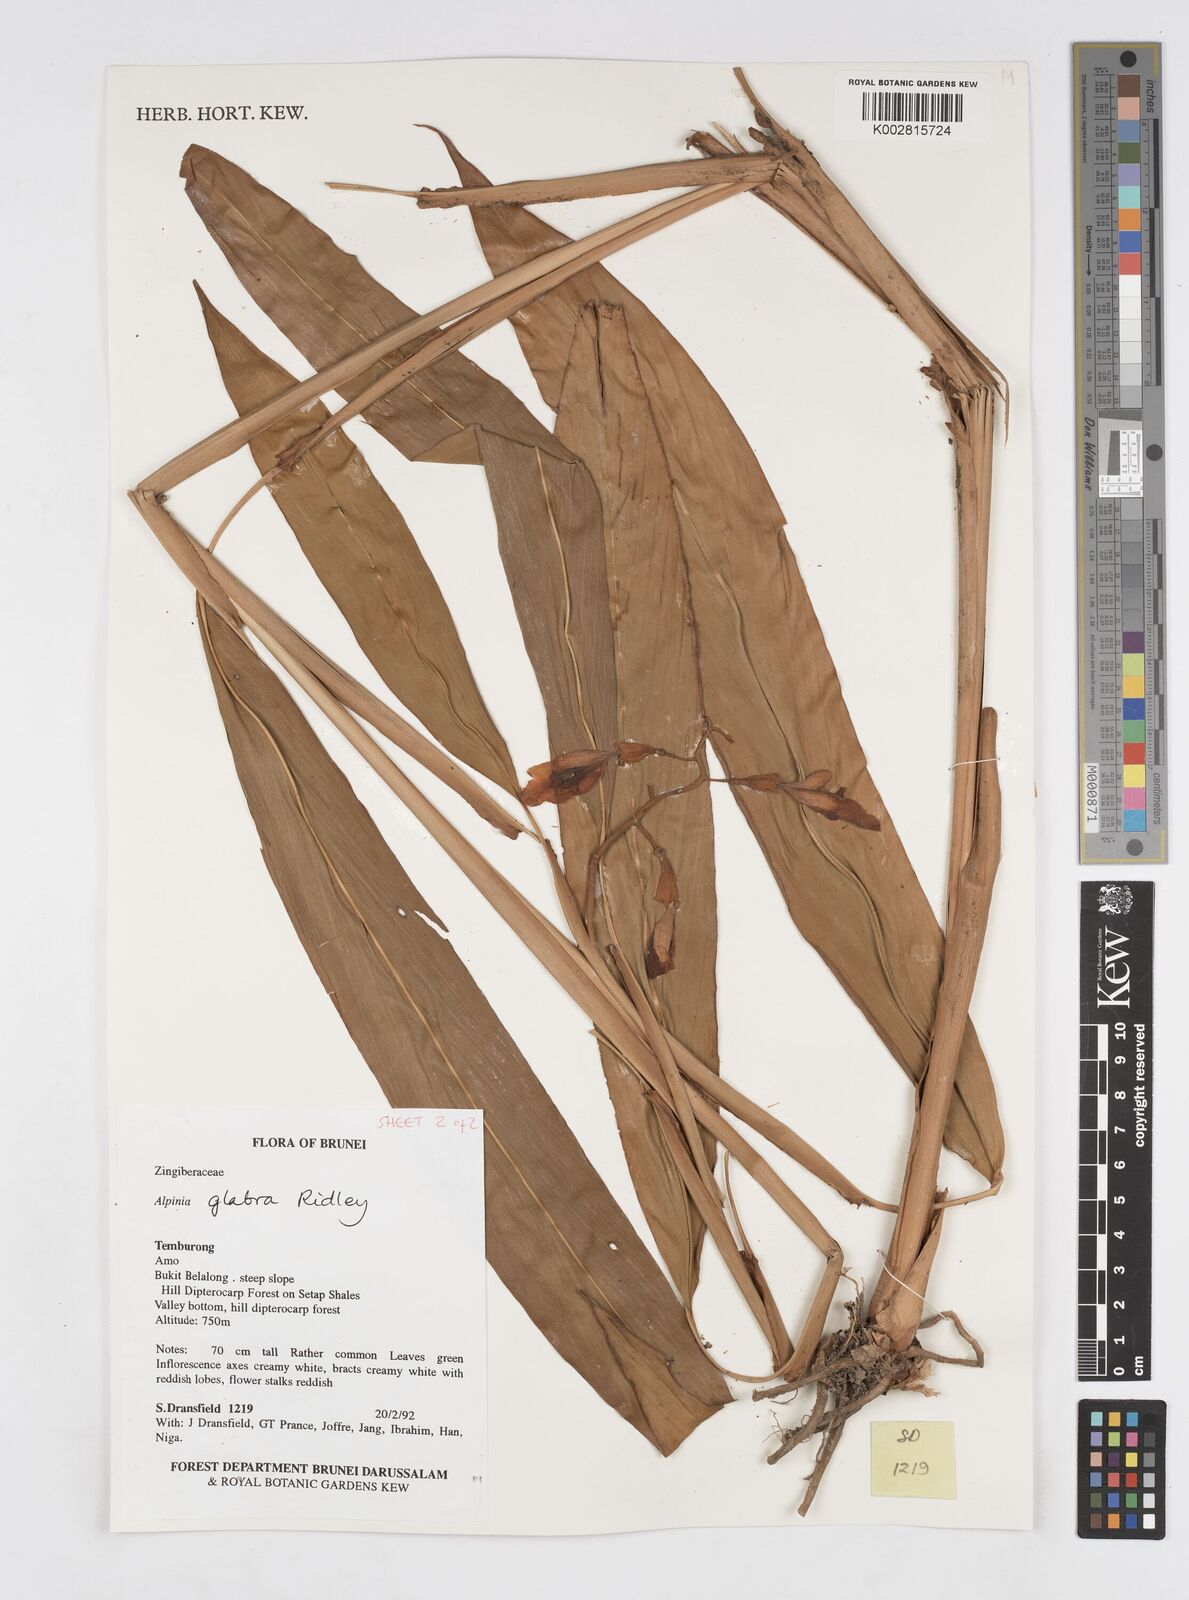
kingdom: Plantae
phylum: Tracheophyta
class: Liliopsida
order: Zingiberales
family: Zingiberaceae
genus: Alpinia
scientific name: Alpinia glabra
